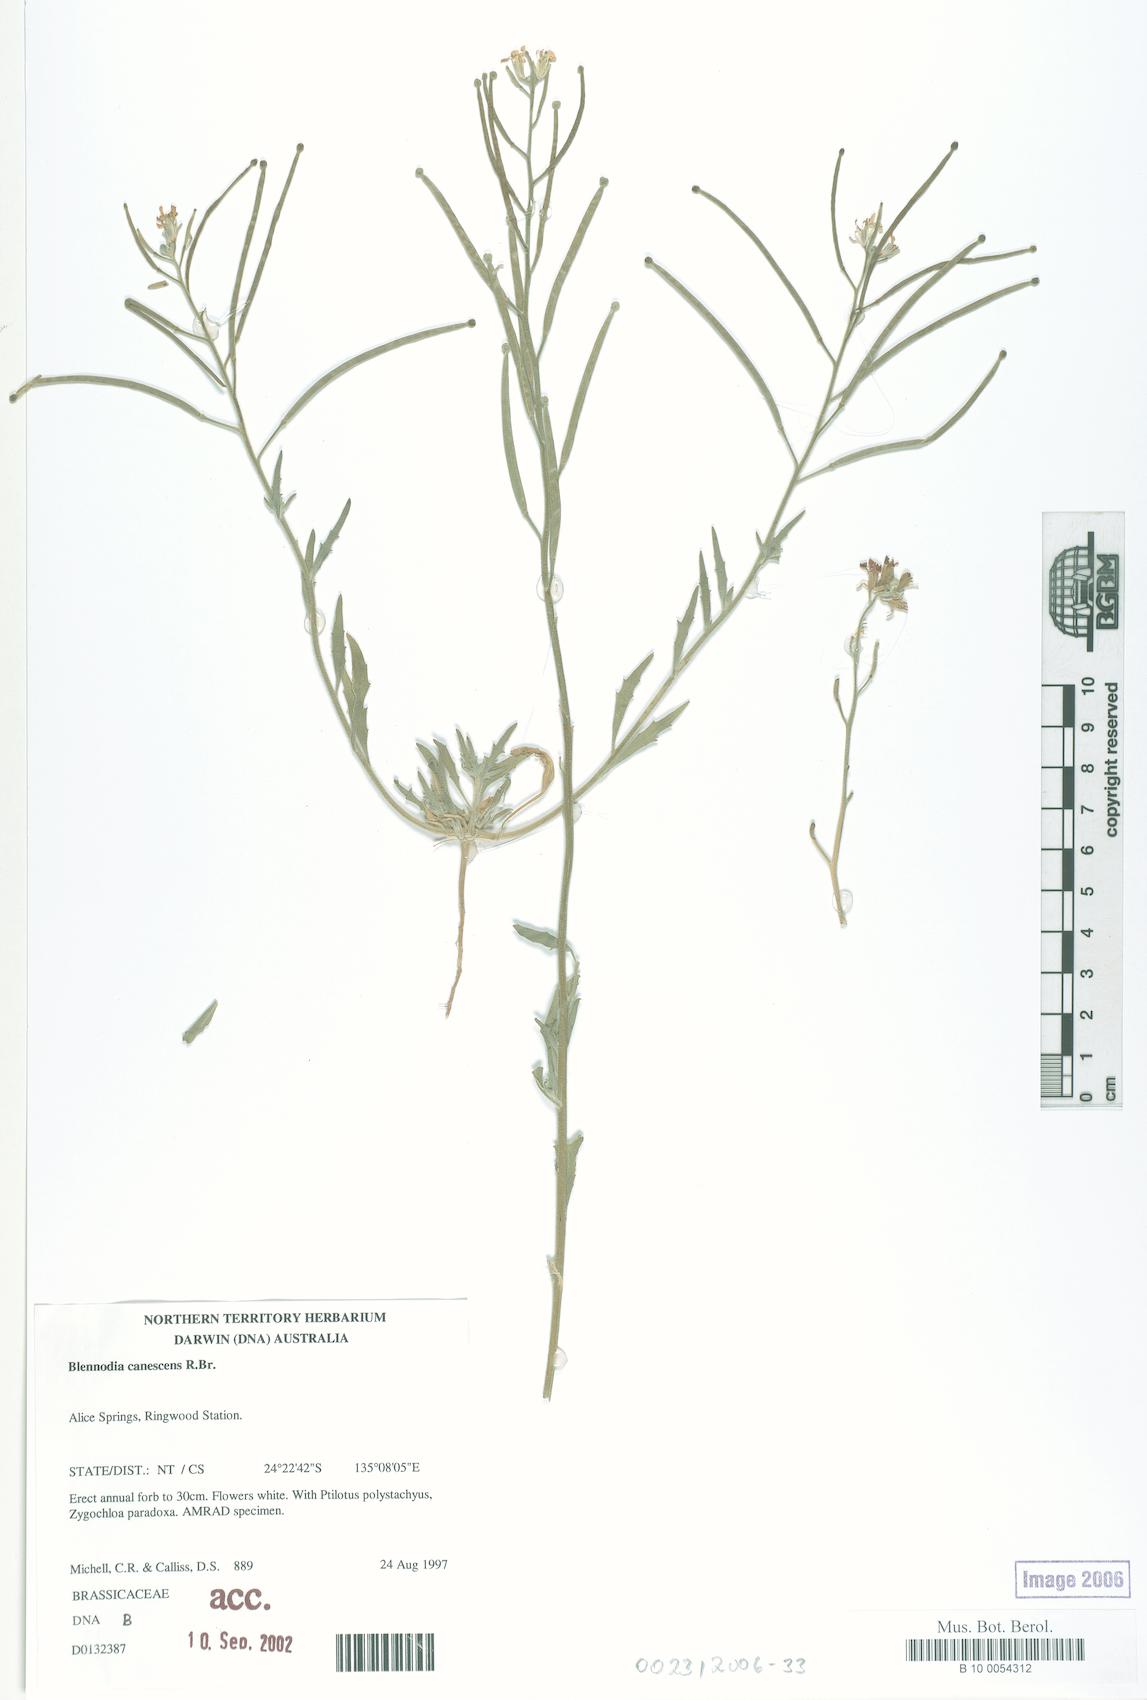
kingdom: Plantae
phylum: Tracheophyta
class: Magnoliopsida
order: Brassicales
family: Brassicaceae
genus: Blennodia
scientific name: Blennodia canescens
